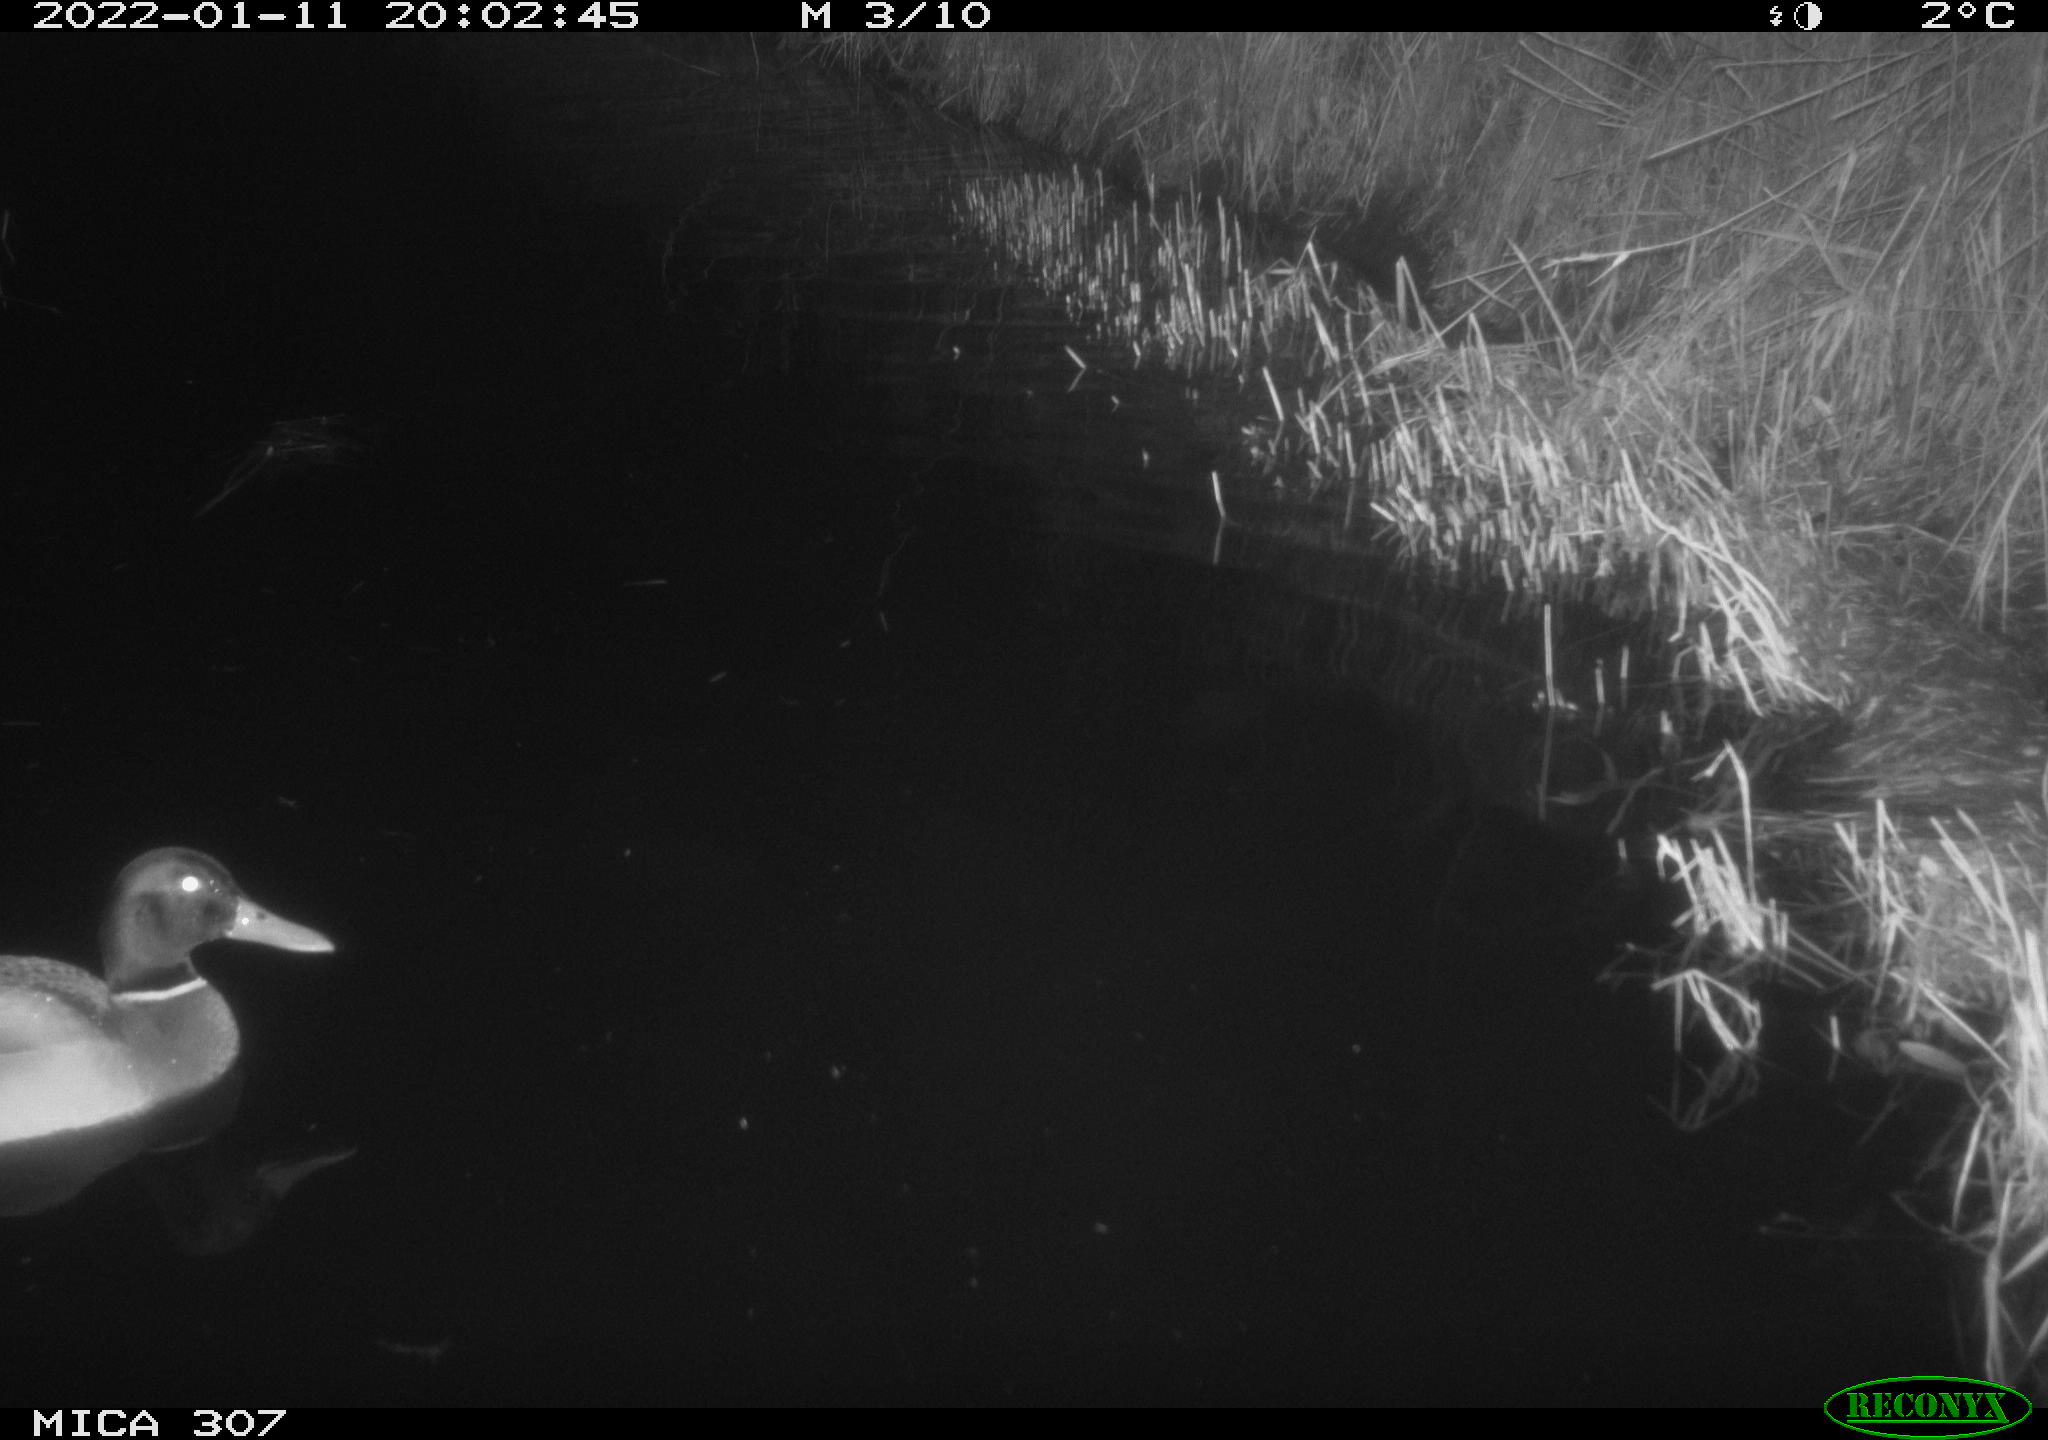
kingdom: Animalia
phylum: Chordata
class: Aves
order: Anseriformes
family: Anatidae
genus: Anas
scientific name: Anas
